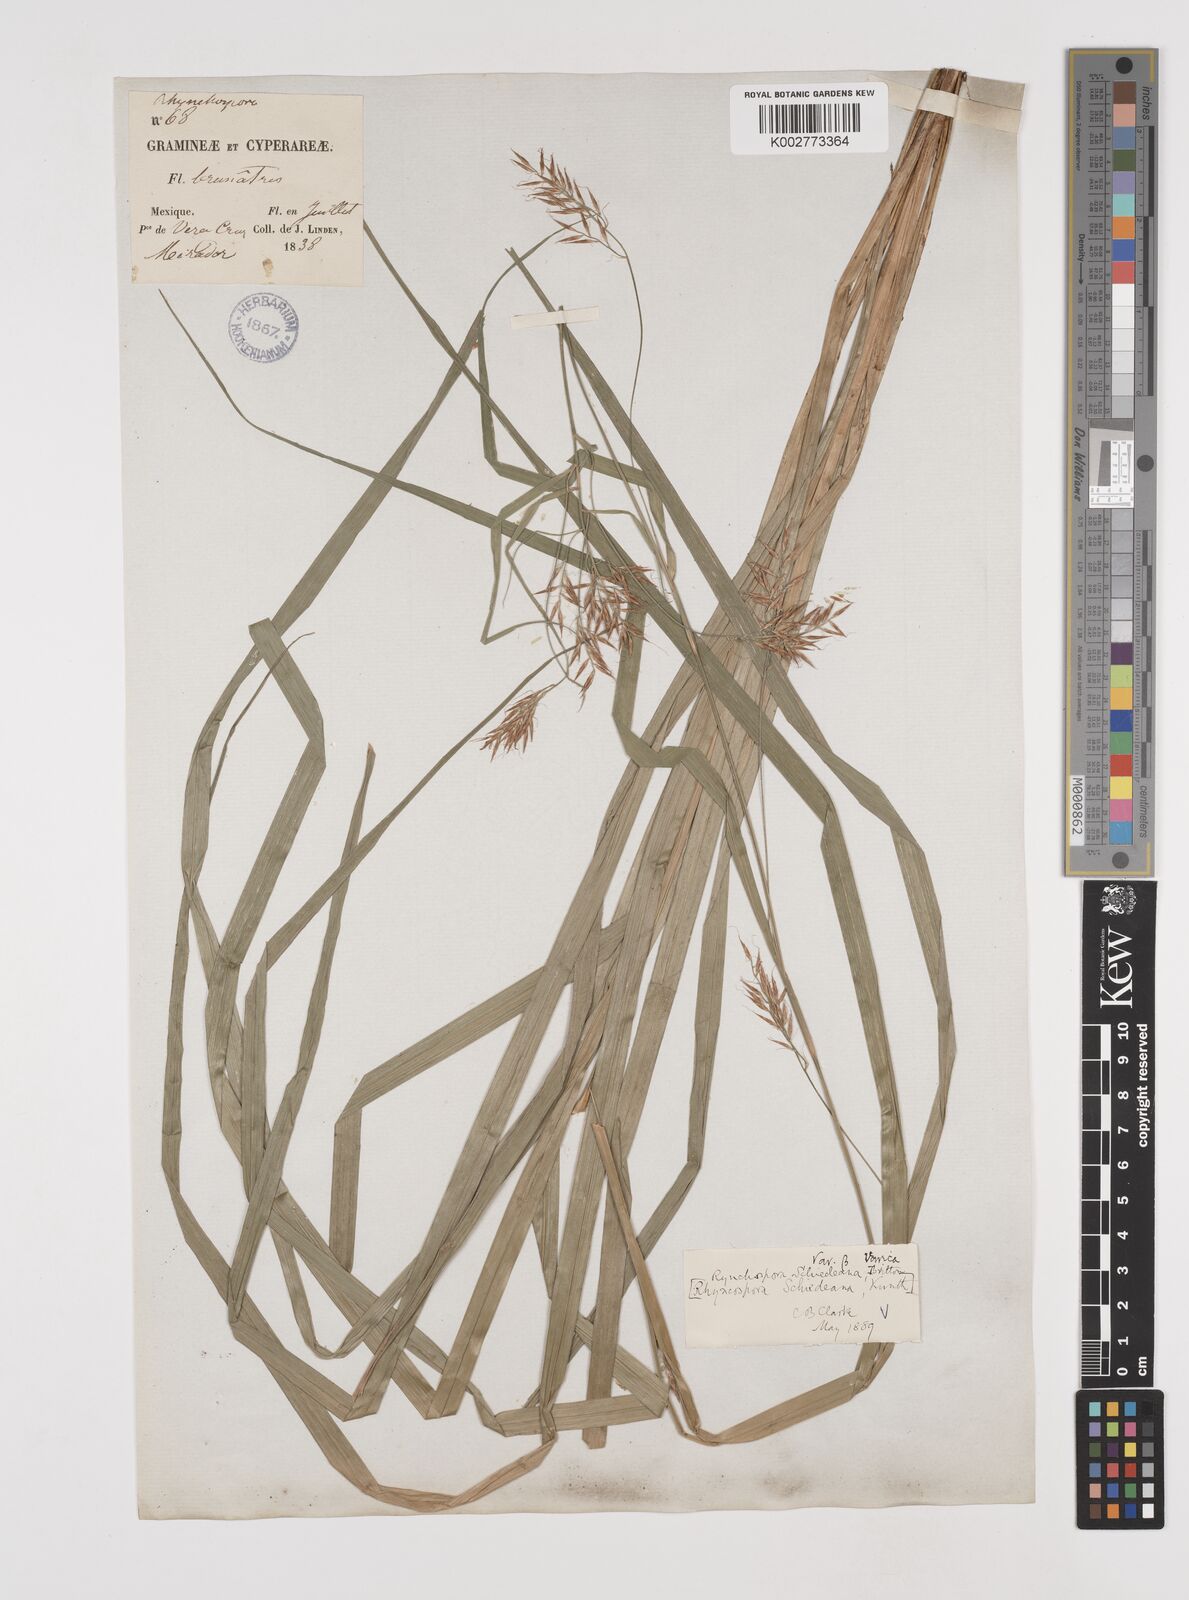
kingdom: Plantae
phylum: Tracheophyta
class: Liliopsida
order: Poales
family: Cyperaceae
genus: Rhynchospora
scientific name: Rhynchospora schiedeana
